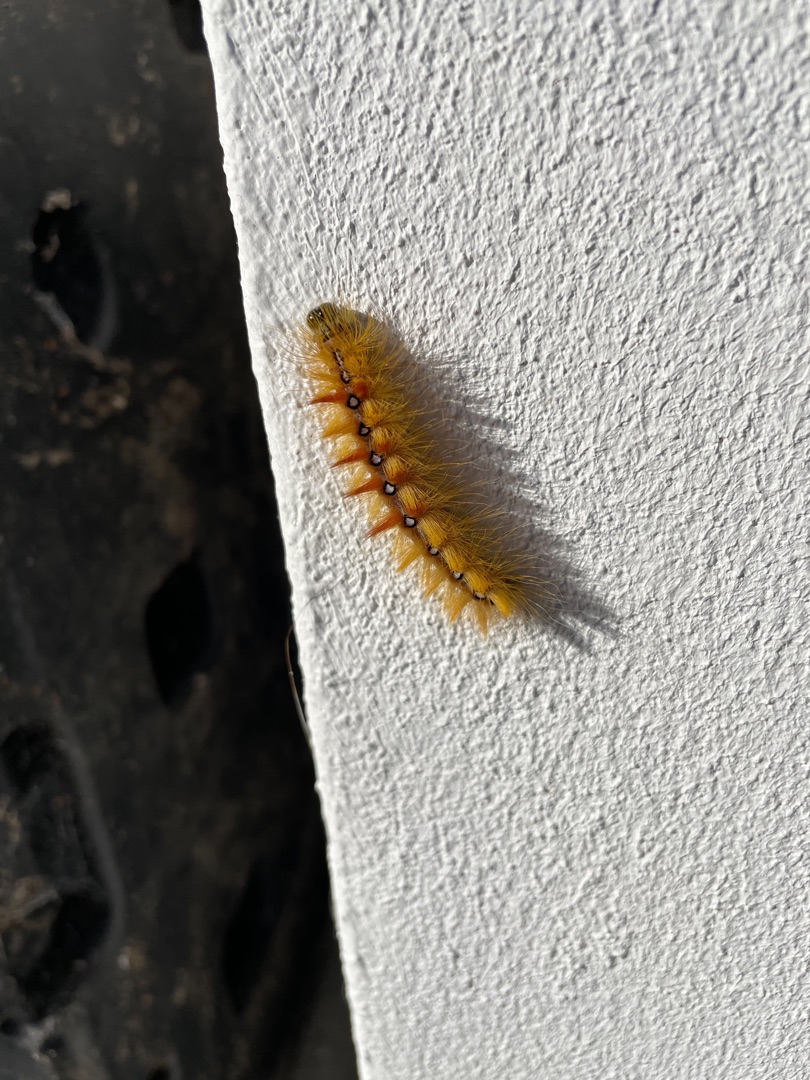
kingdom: Animalia
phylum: Arthropoda
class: Insecta
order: Lepidoptera
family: Noctuidae
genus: Acronicta
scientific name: Acronicta aceris
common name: Ahornugle
